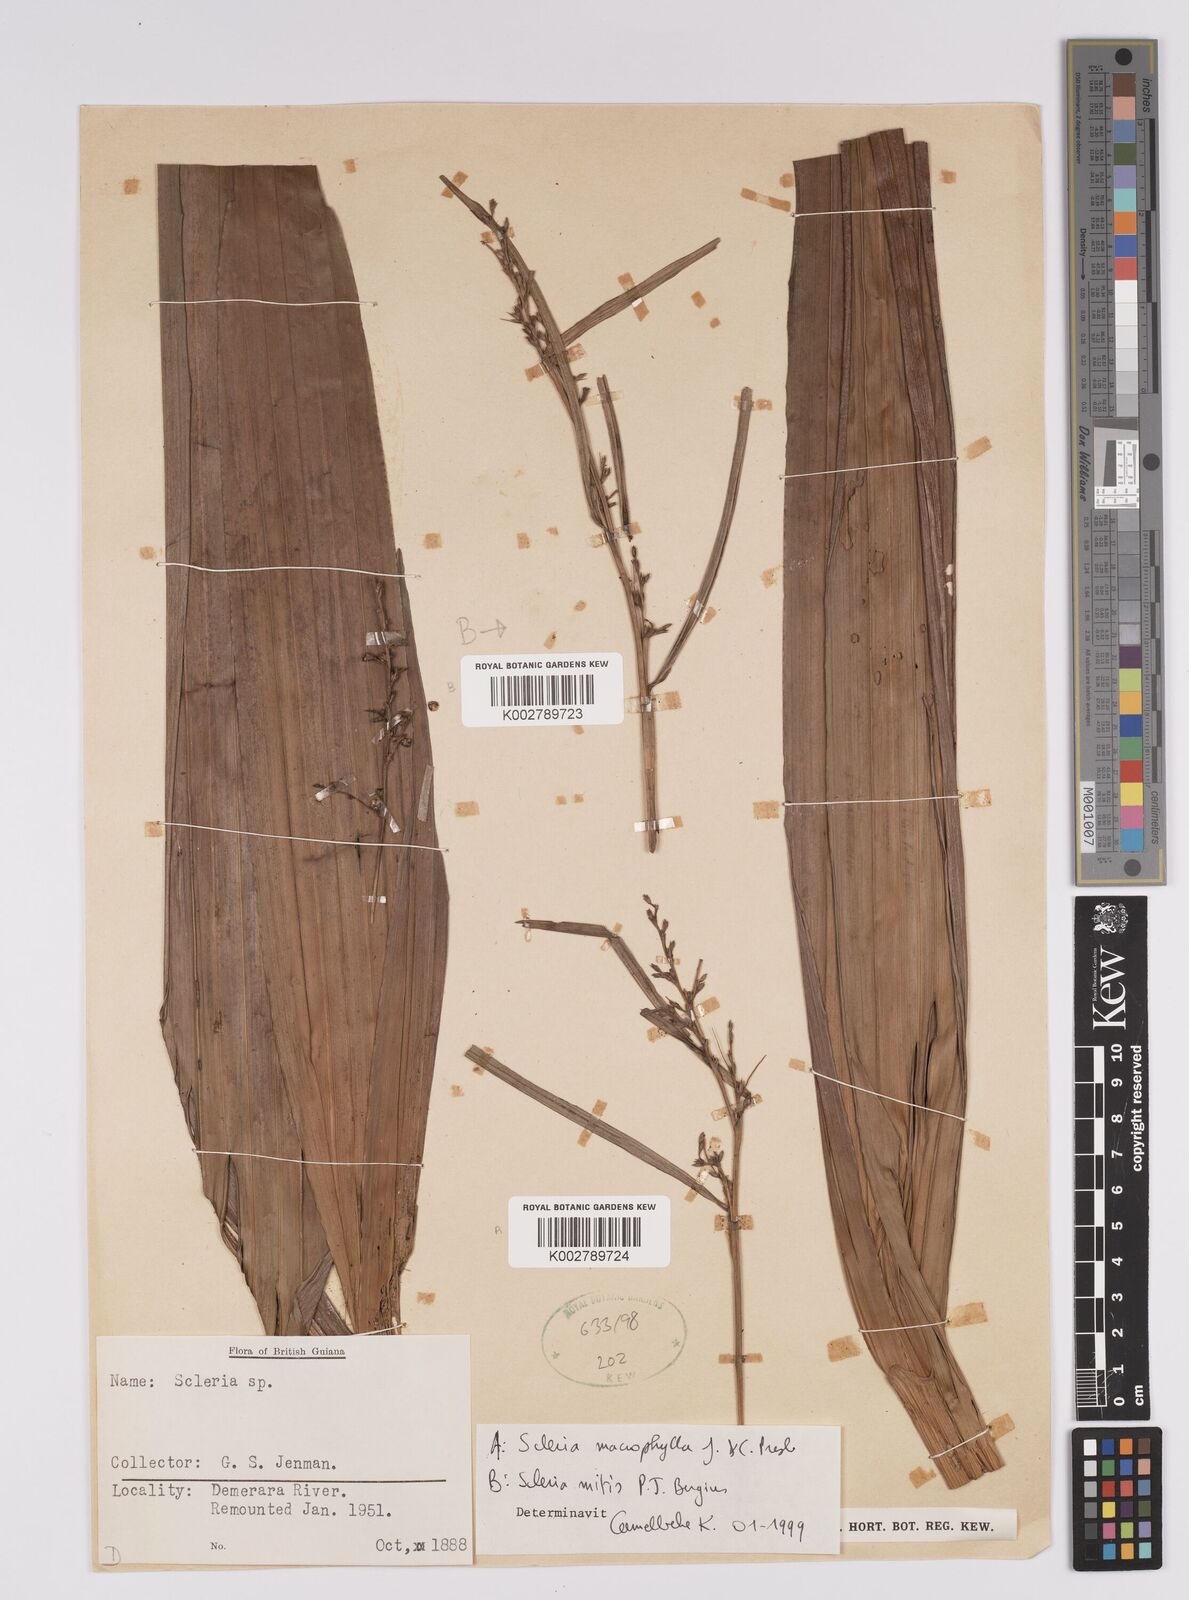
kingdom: Plantae
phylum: Tracheophyta
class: Liliopsida
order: Poales
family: Cyperaceae
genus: Scleria
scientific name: Scleria mitis
